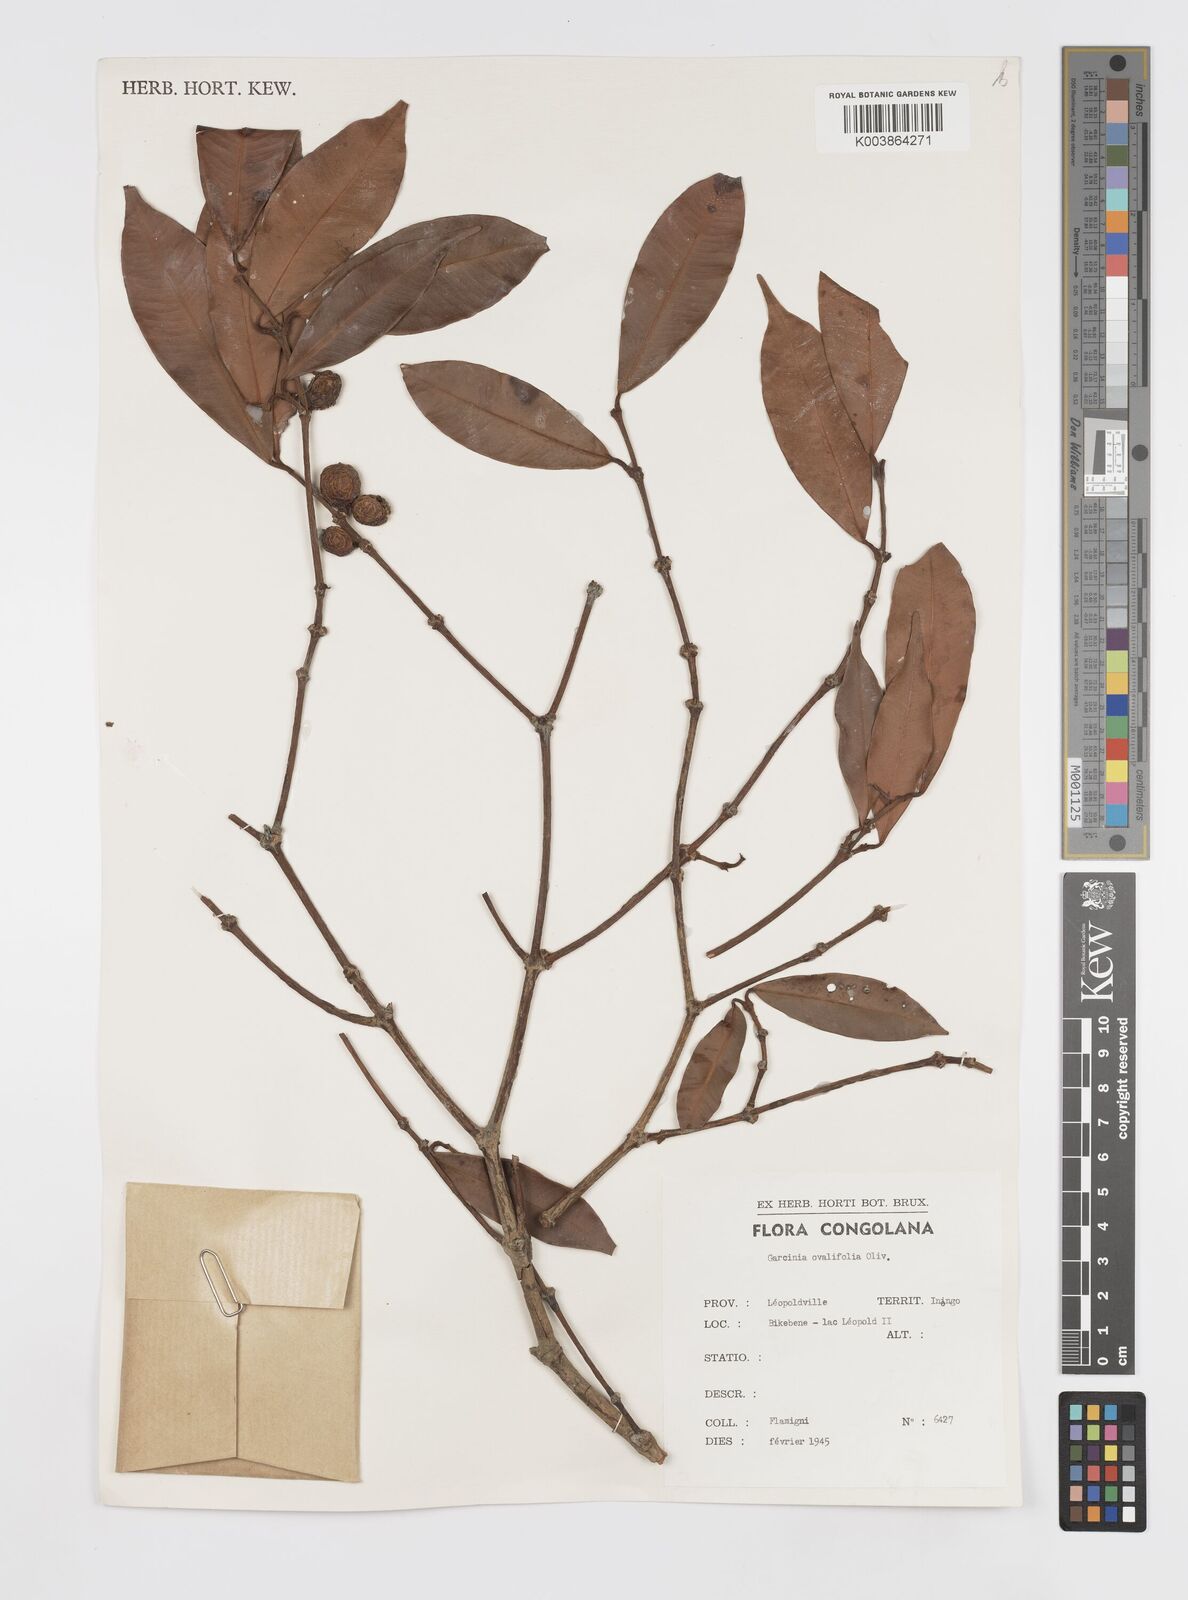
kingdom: Plantae
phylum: Tracheophyta
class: Magnoliopsida
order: Malpighiales
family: Clusiaceae
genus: Garcinia
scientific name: Garcinia ovalifolia
